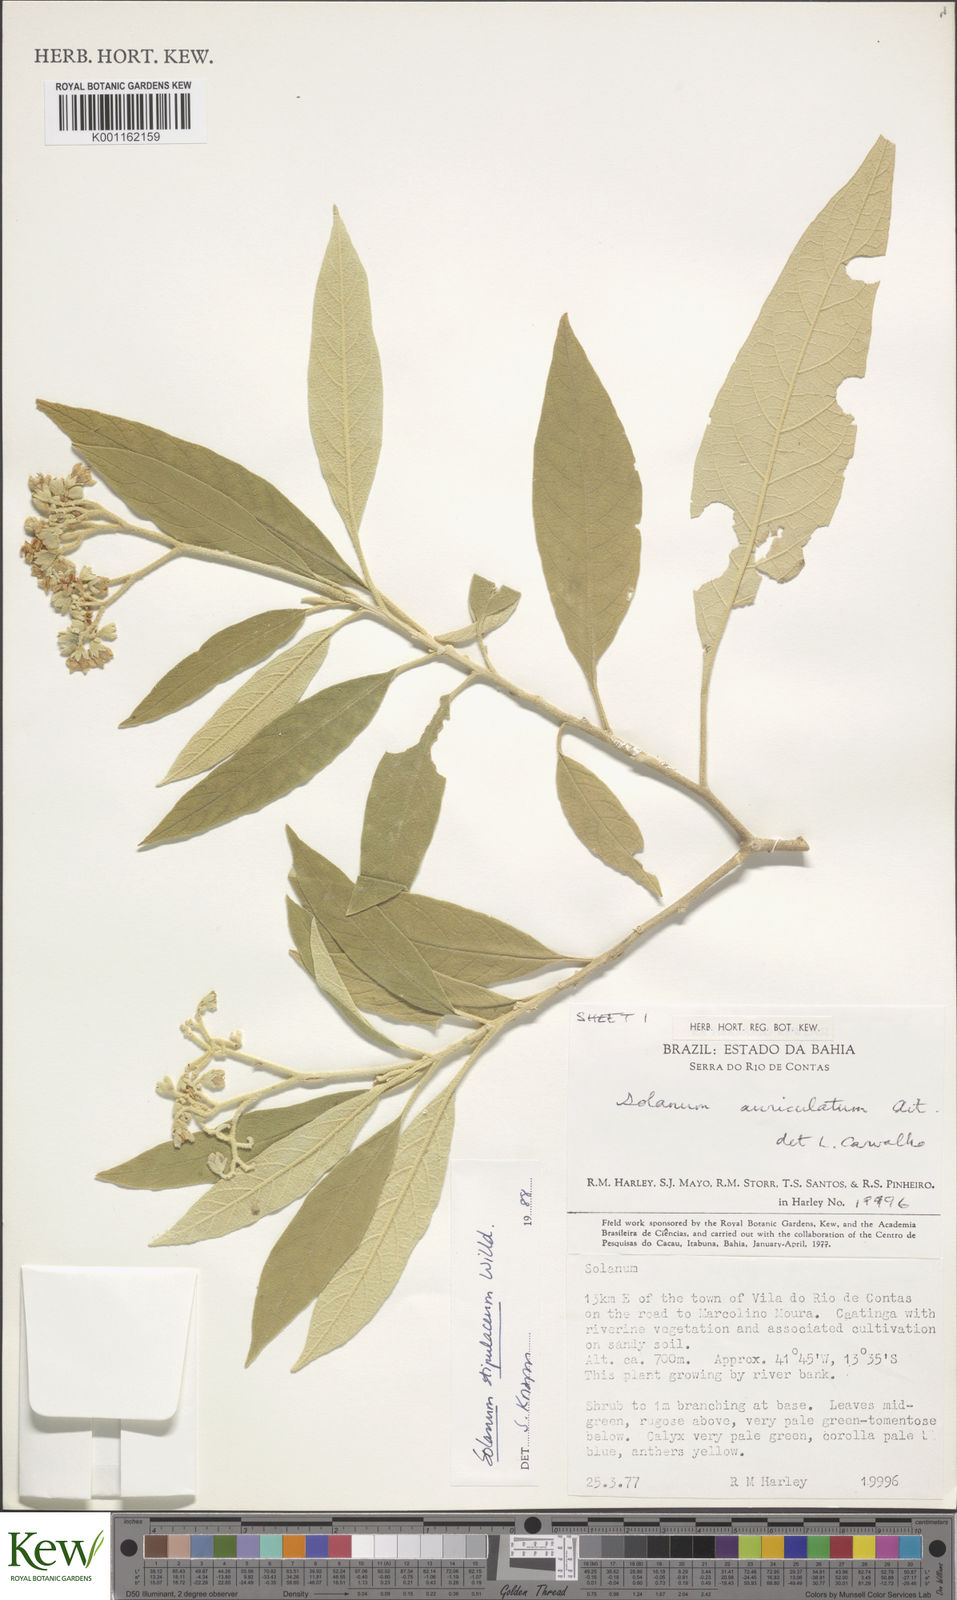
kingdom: Plantae
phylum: Tracheophyta
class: Magnoliopsida
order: Solanales
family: Solanaceae
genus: Solanum
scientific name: Solanum stipulaceum
